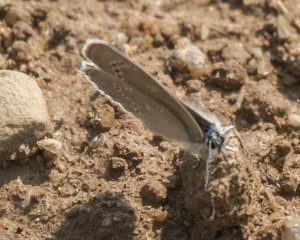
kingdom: Animalia
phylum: Arthropoda
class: Insecta
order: Lepidoptera
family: Lycaenidae
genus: Glaucopsyche
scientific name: Glaucopsyche lygdamus
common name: Silvery Blue
